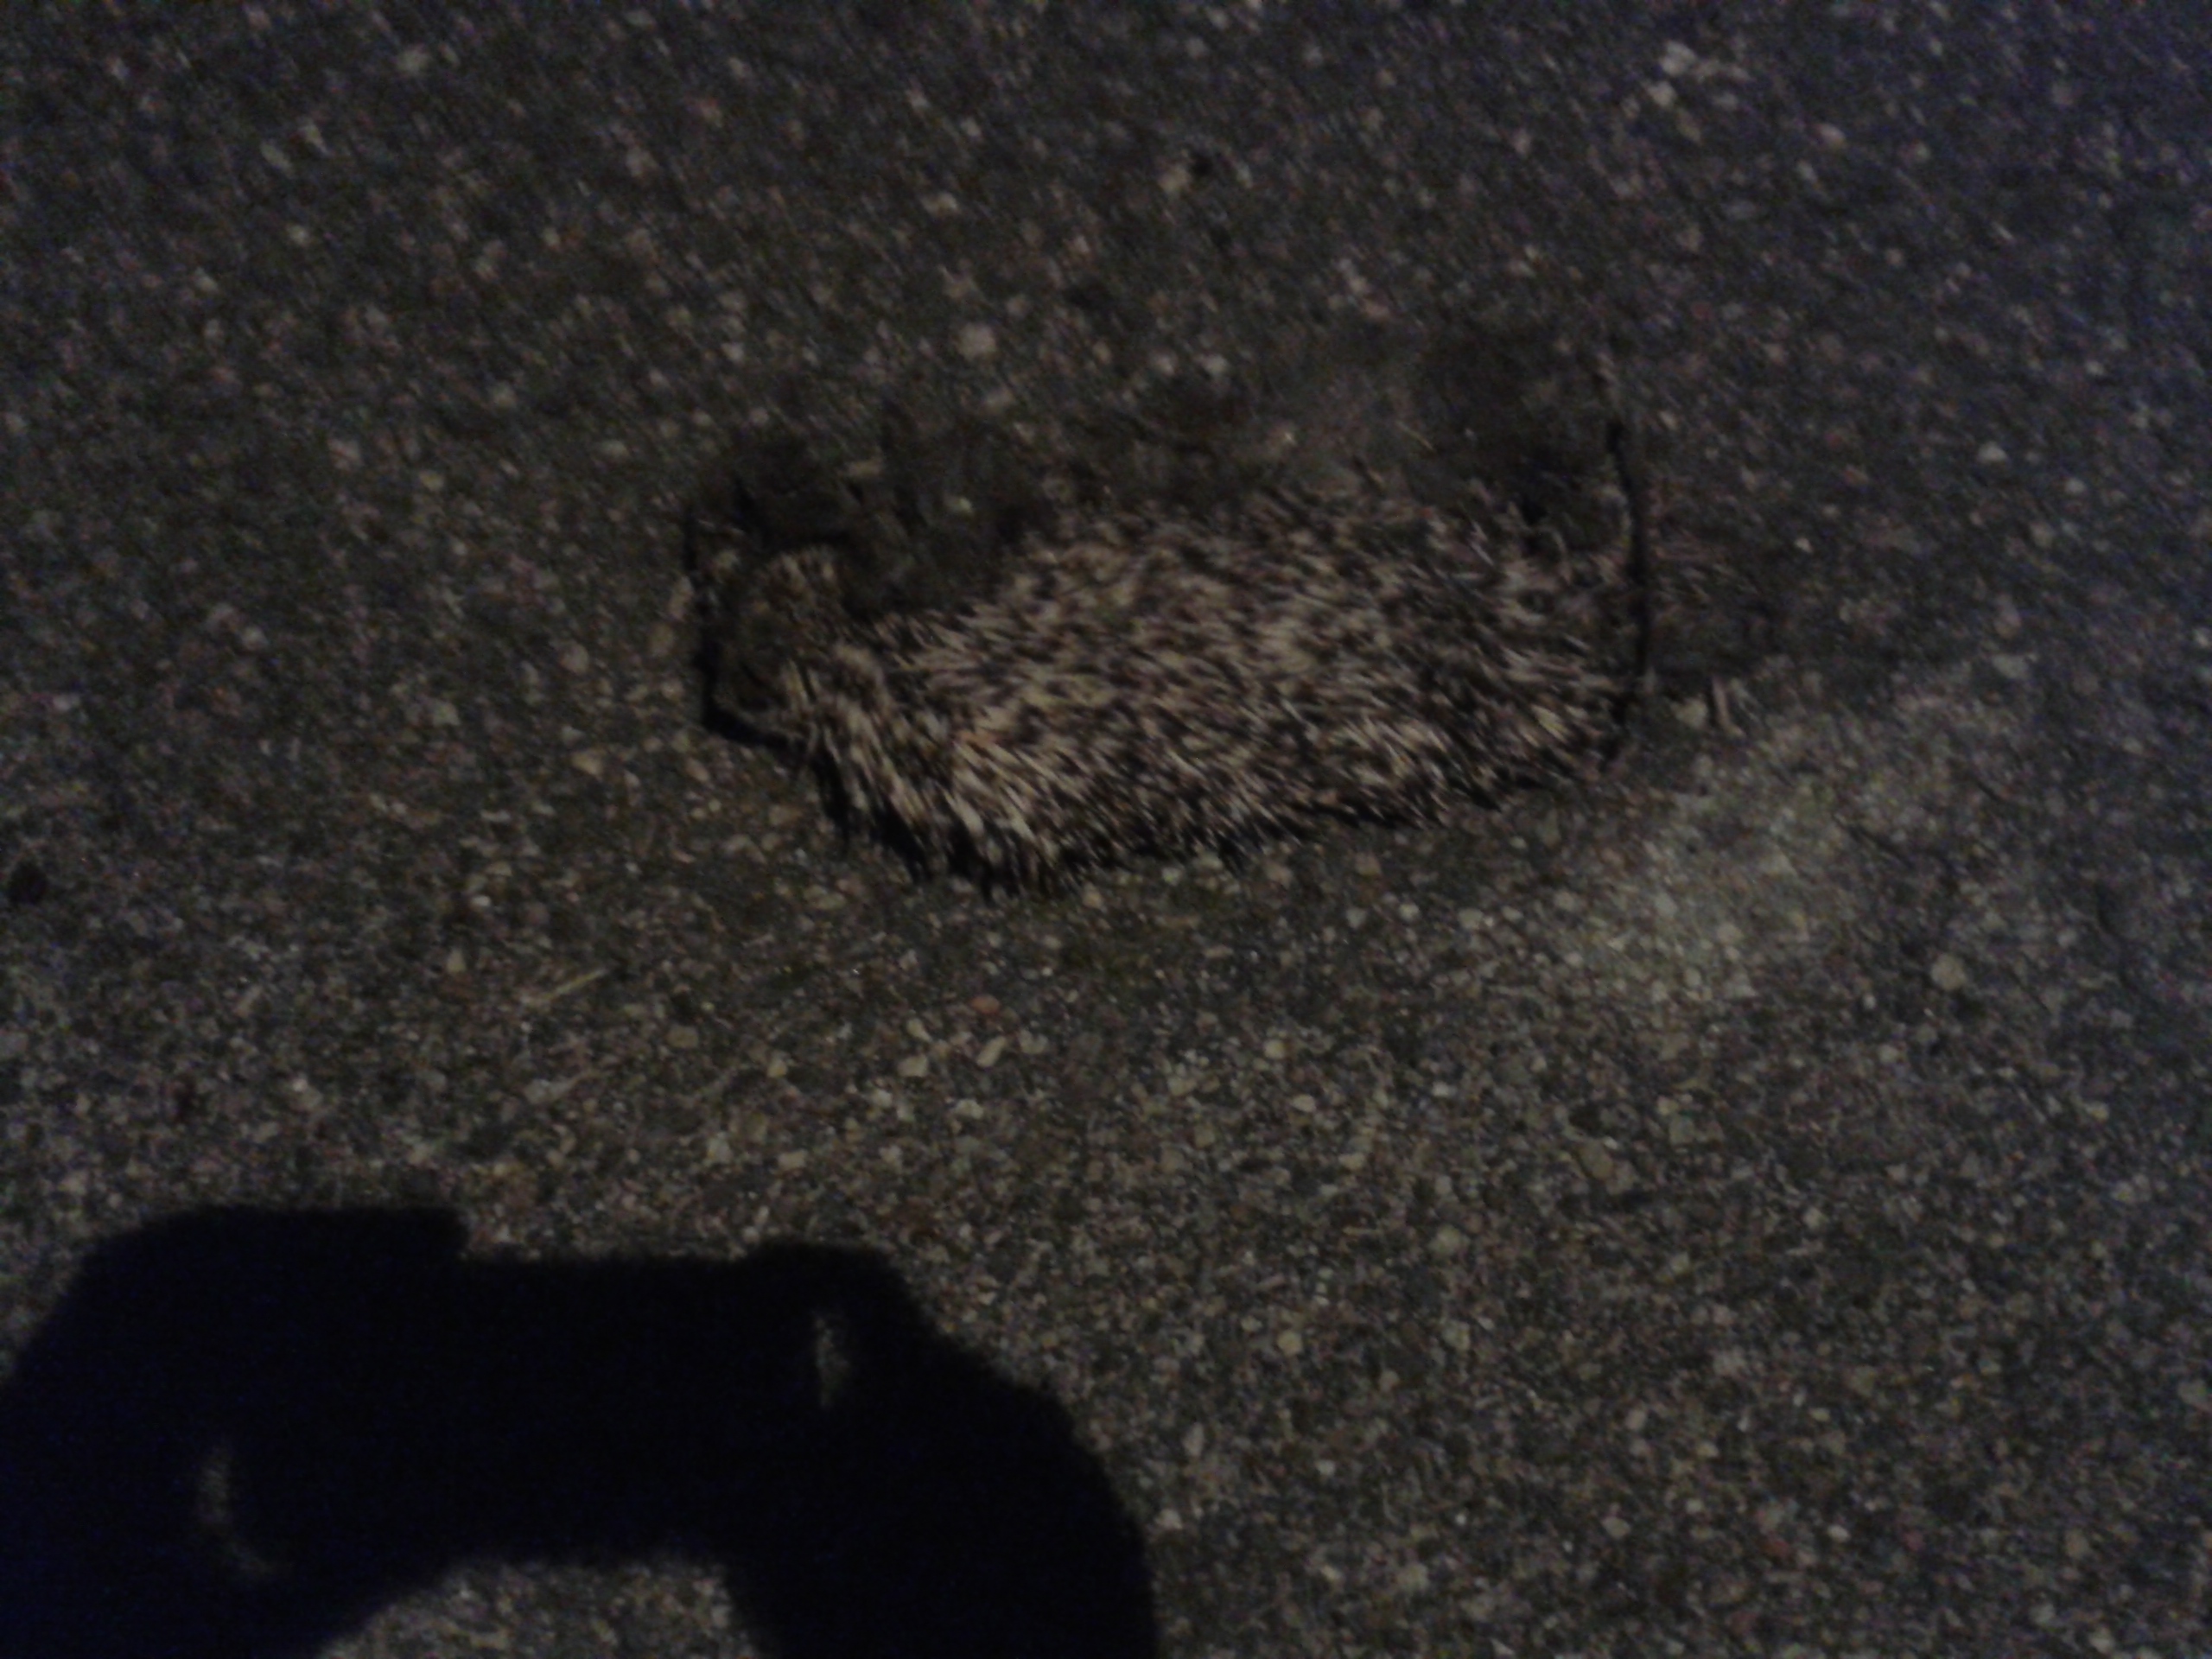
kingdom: Animalia
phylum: Chordata
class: Mammalia
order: Erinaceomorpha
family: Erinaceidae
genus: Erinaceus
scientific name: Erinaceus
